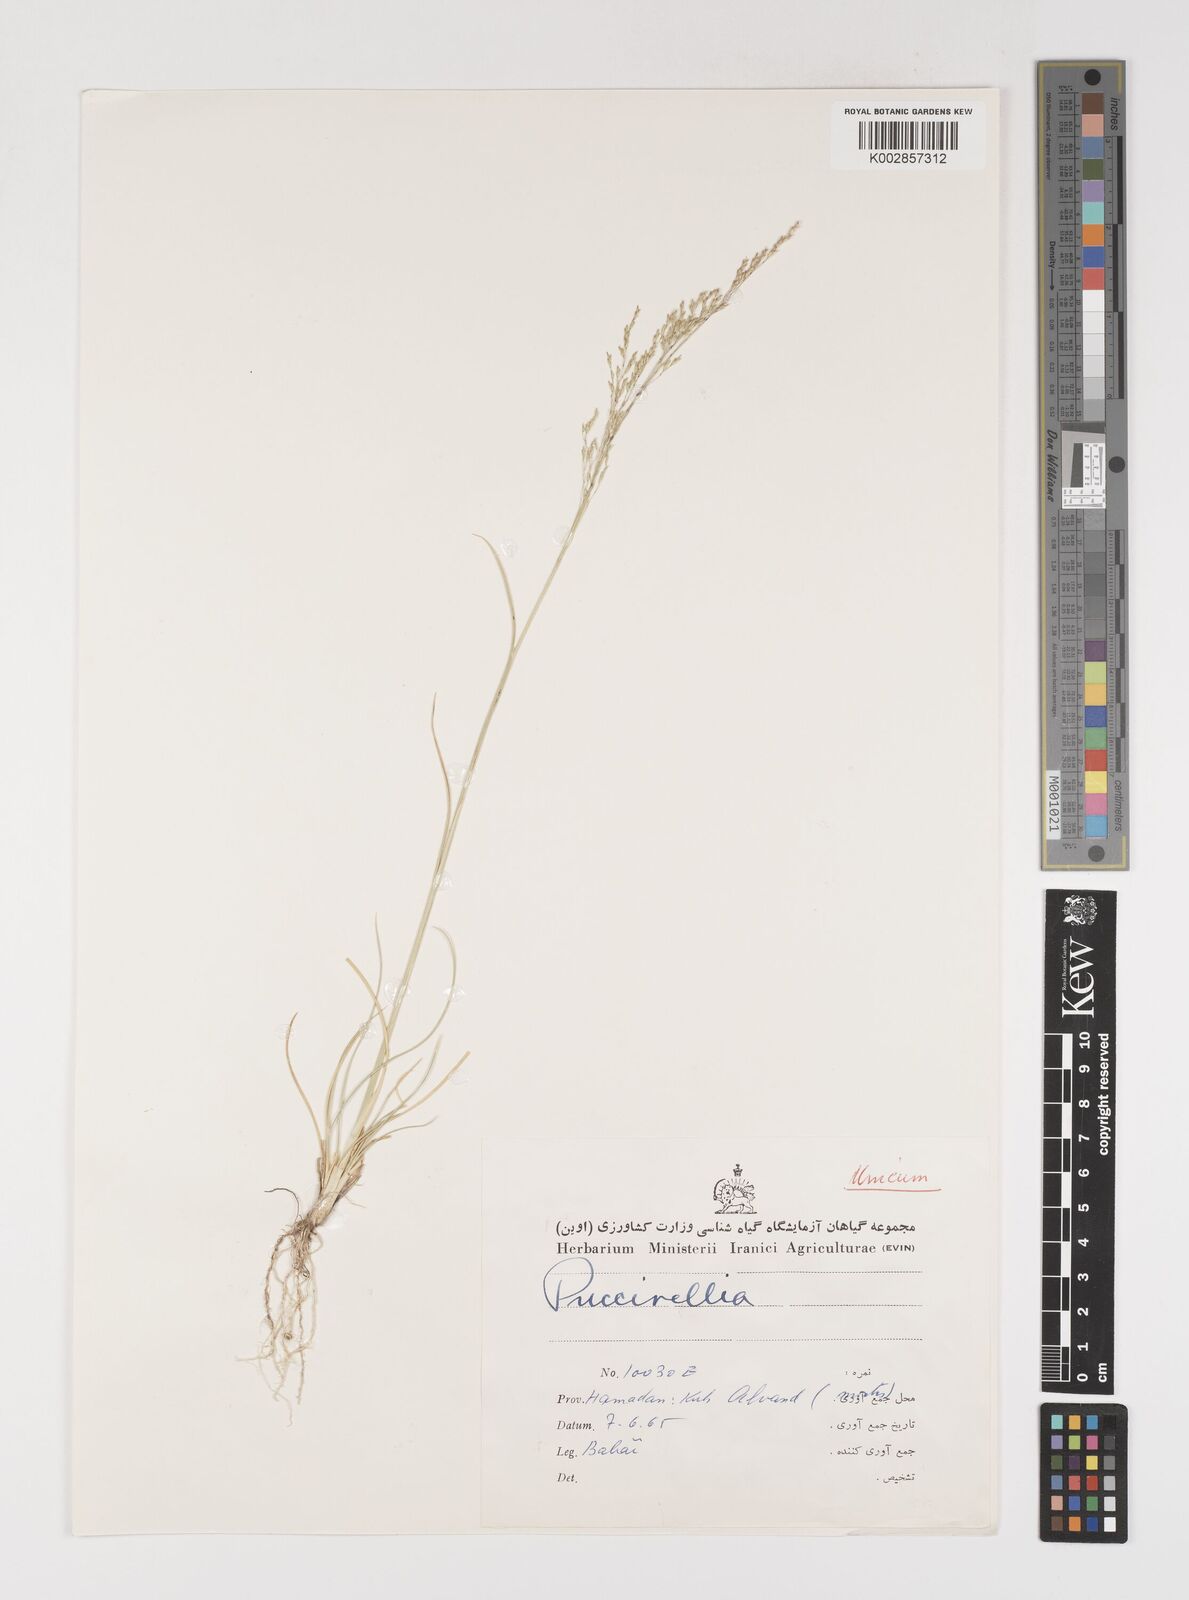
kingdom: Plantae
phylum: Tracheophyta
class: Liliopsida
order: Poales
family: Poaceae
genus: Puccinellia
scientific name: Puccinellia
